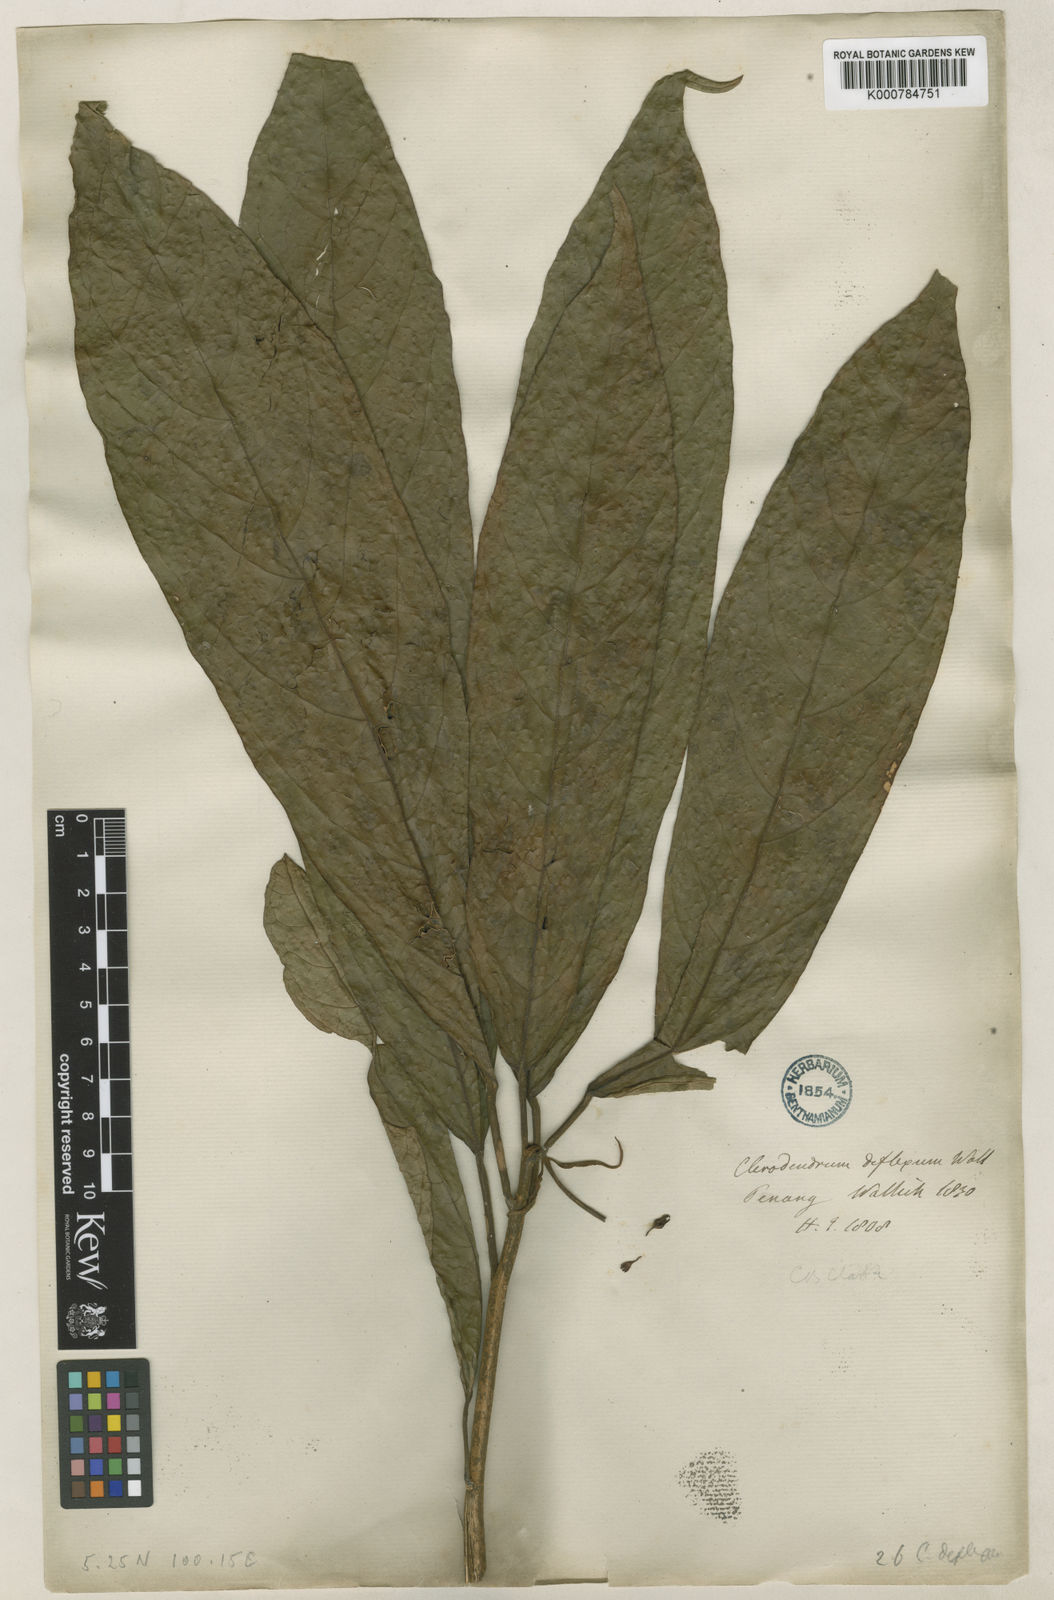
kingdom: Plantae
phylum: Tracheophyta
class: Magnoliopsida
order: Lamiales
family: Lamiaceae
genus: Clerodendrum
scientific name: Clerodendrum deflexum
